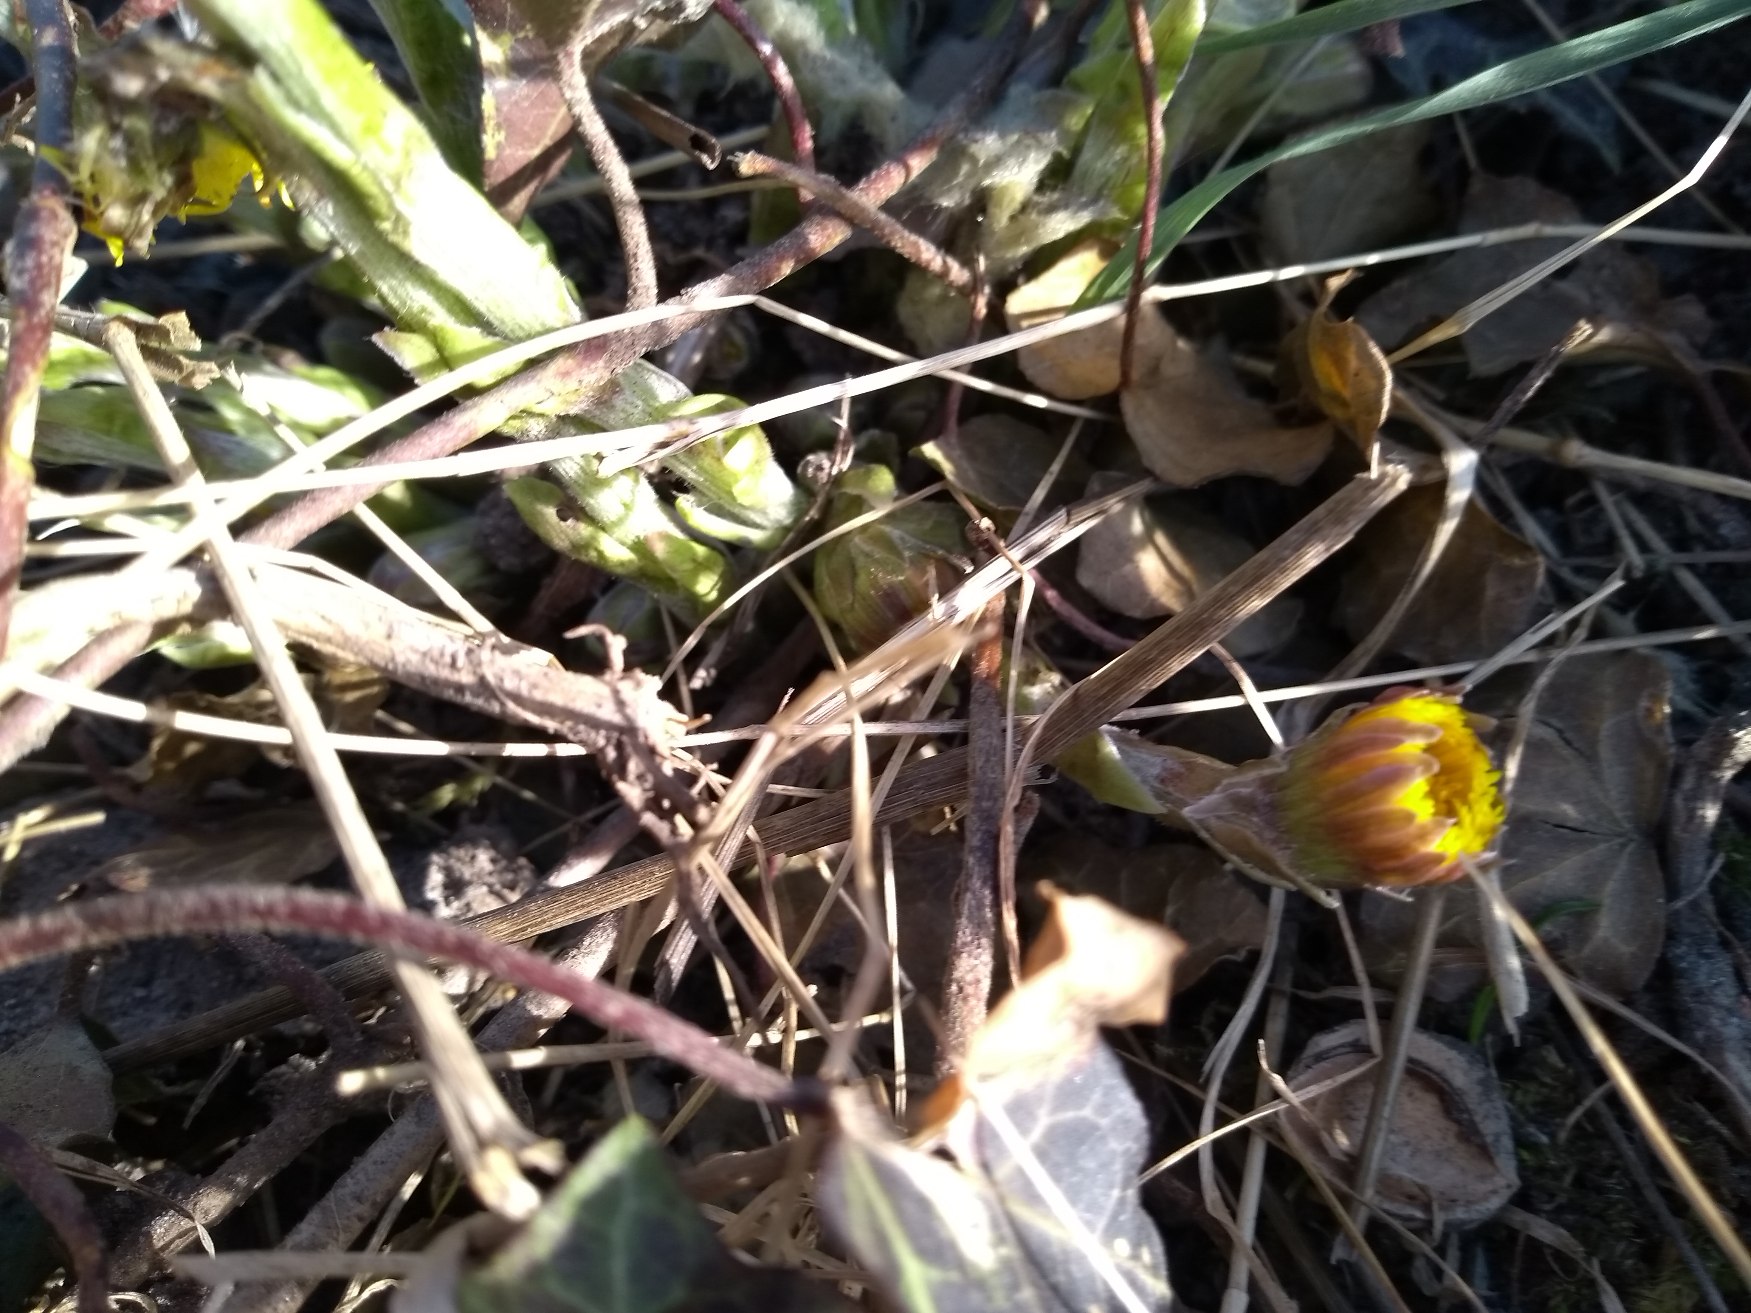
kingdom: Plantae
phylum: Tracheophyta
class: Magnoliopsida
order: Asterales
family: Asteraceae
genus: Tussilago
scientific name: Tussilago farfara
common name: Følfod
